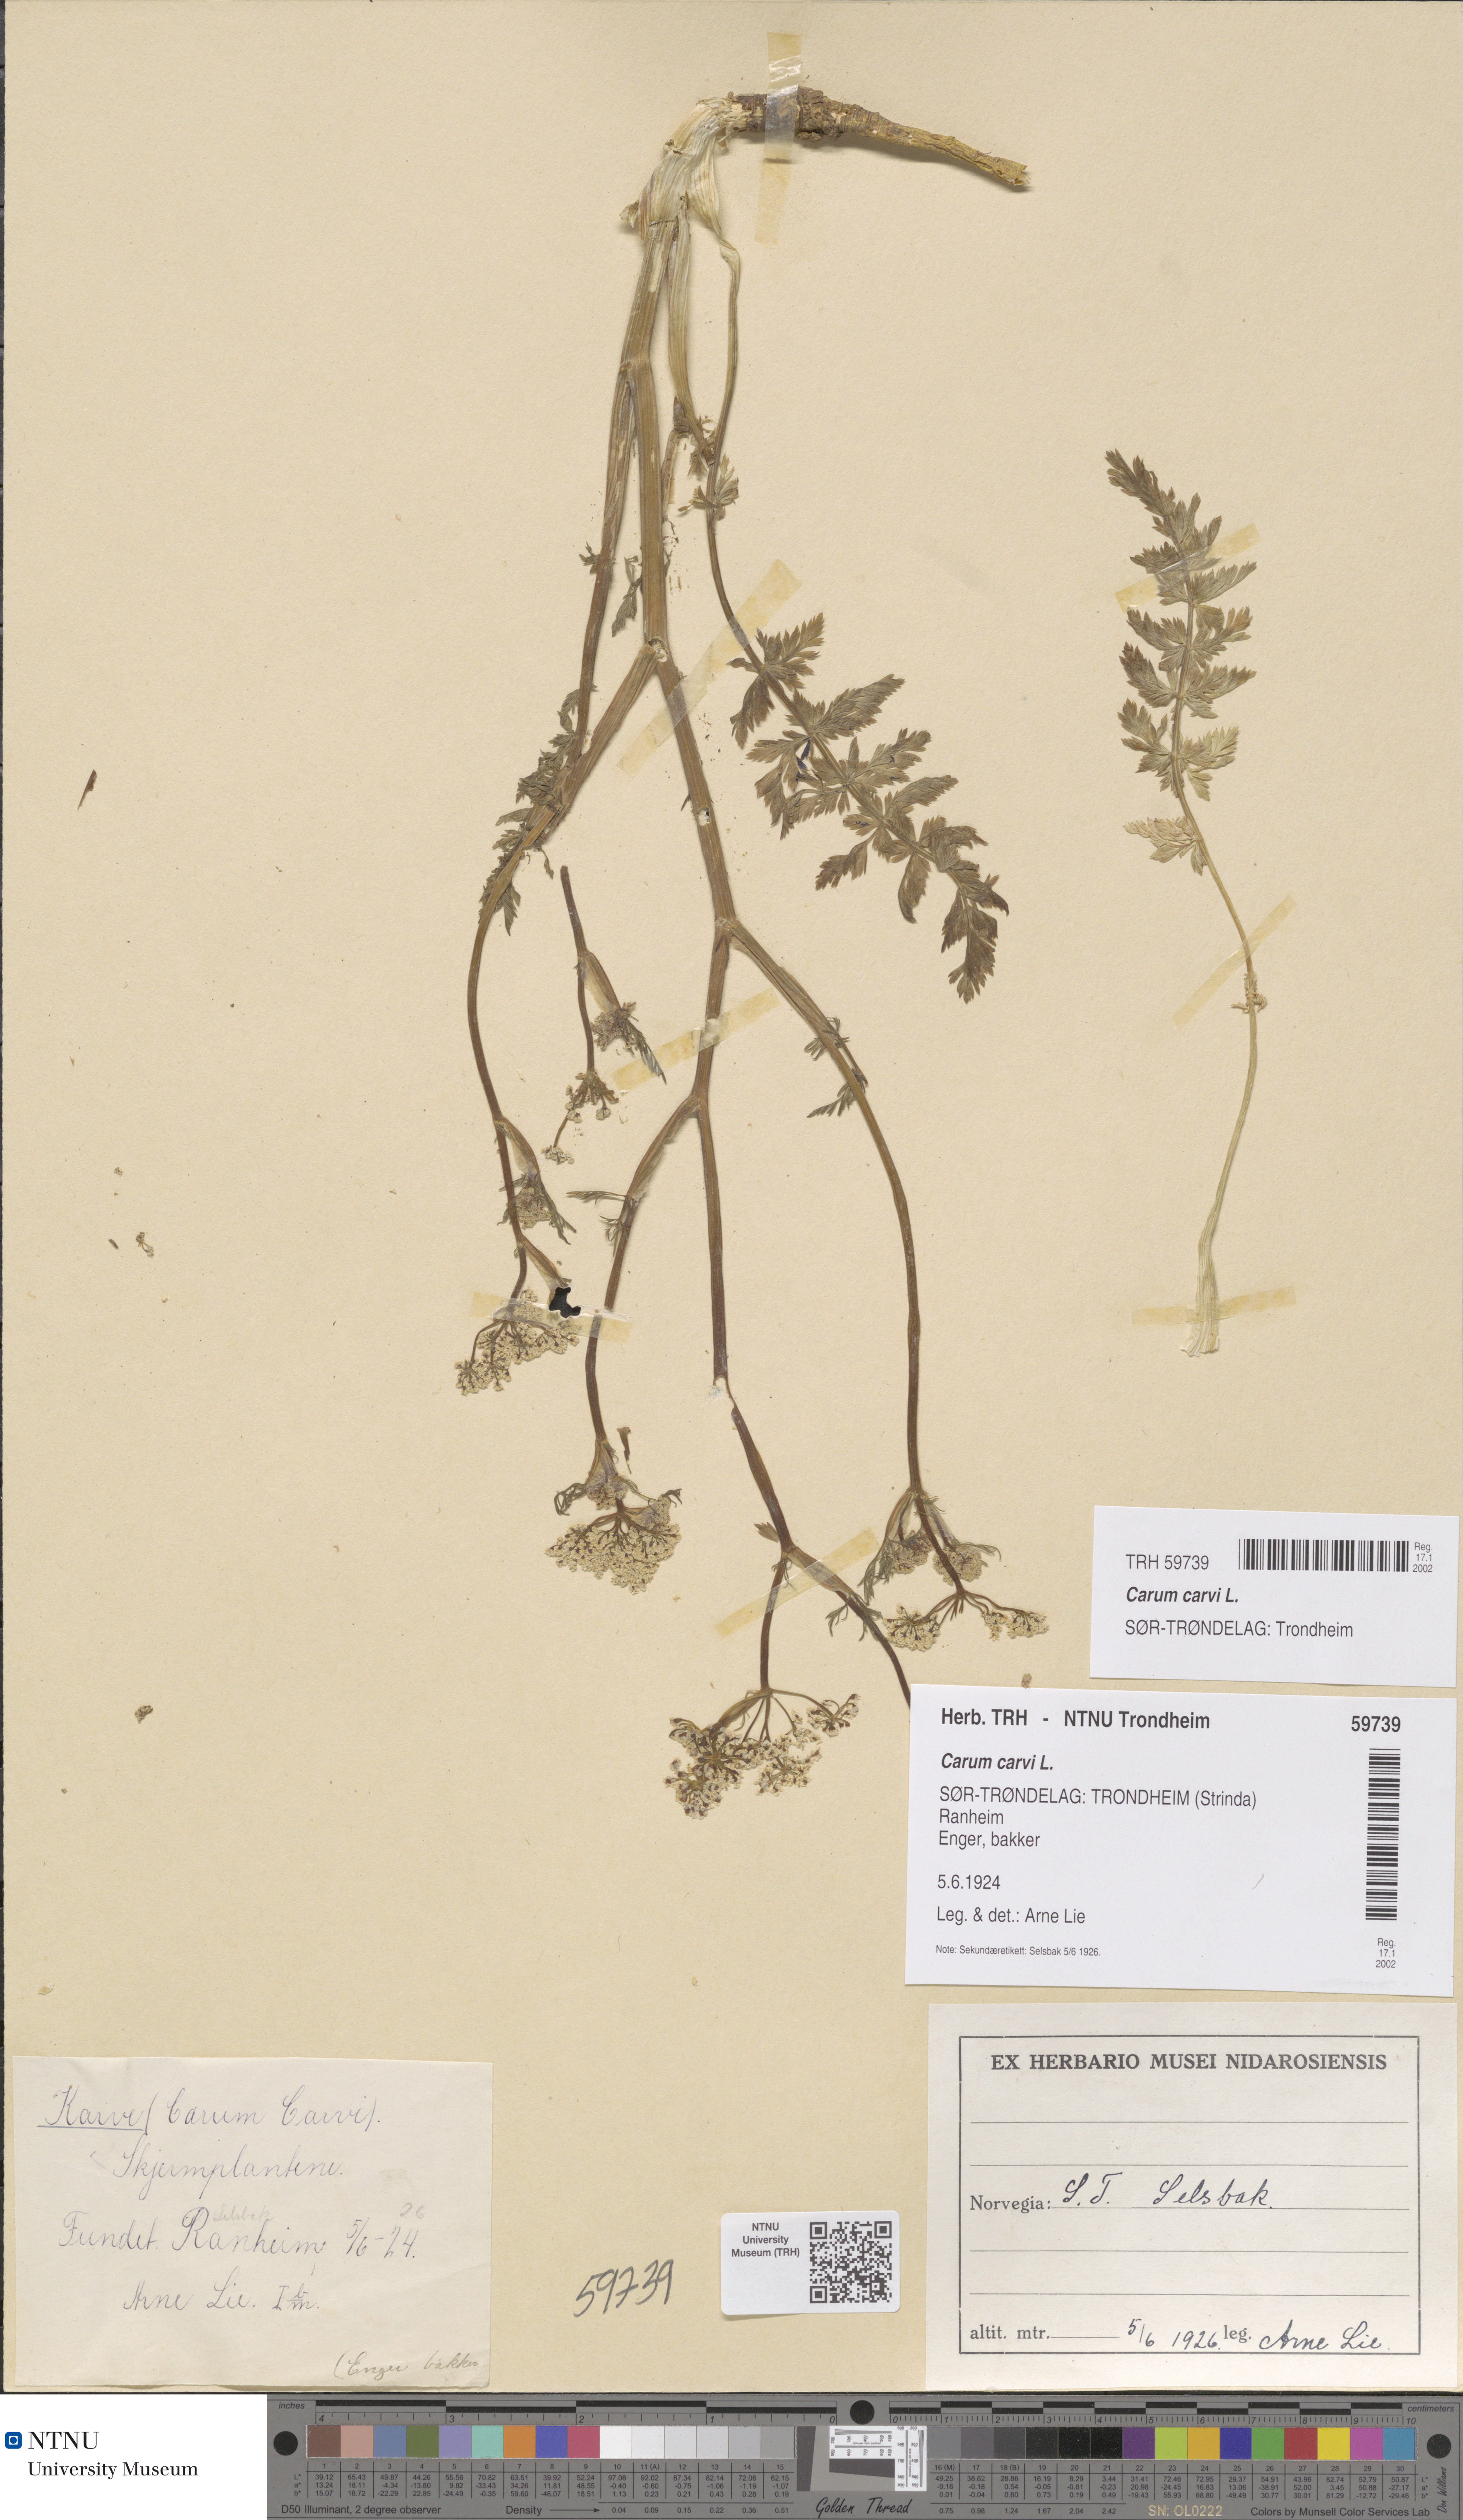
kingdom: Plantae
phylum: Tracheophyta
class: Magnoliopsida
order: Apiales
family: Apiaceae
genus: Carum
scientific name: Carum carvi
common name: Caraway
